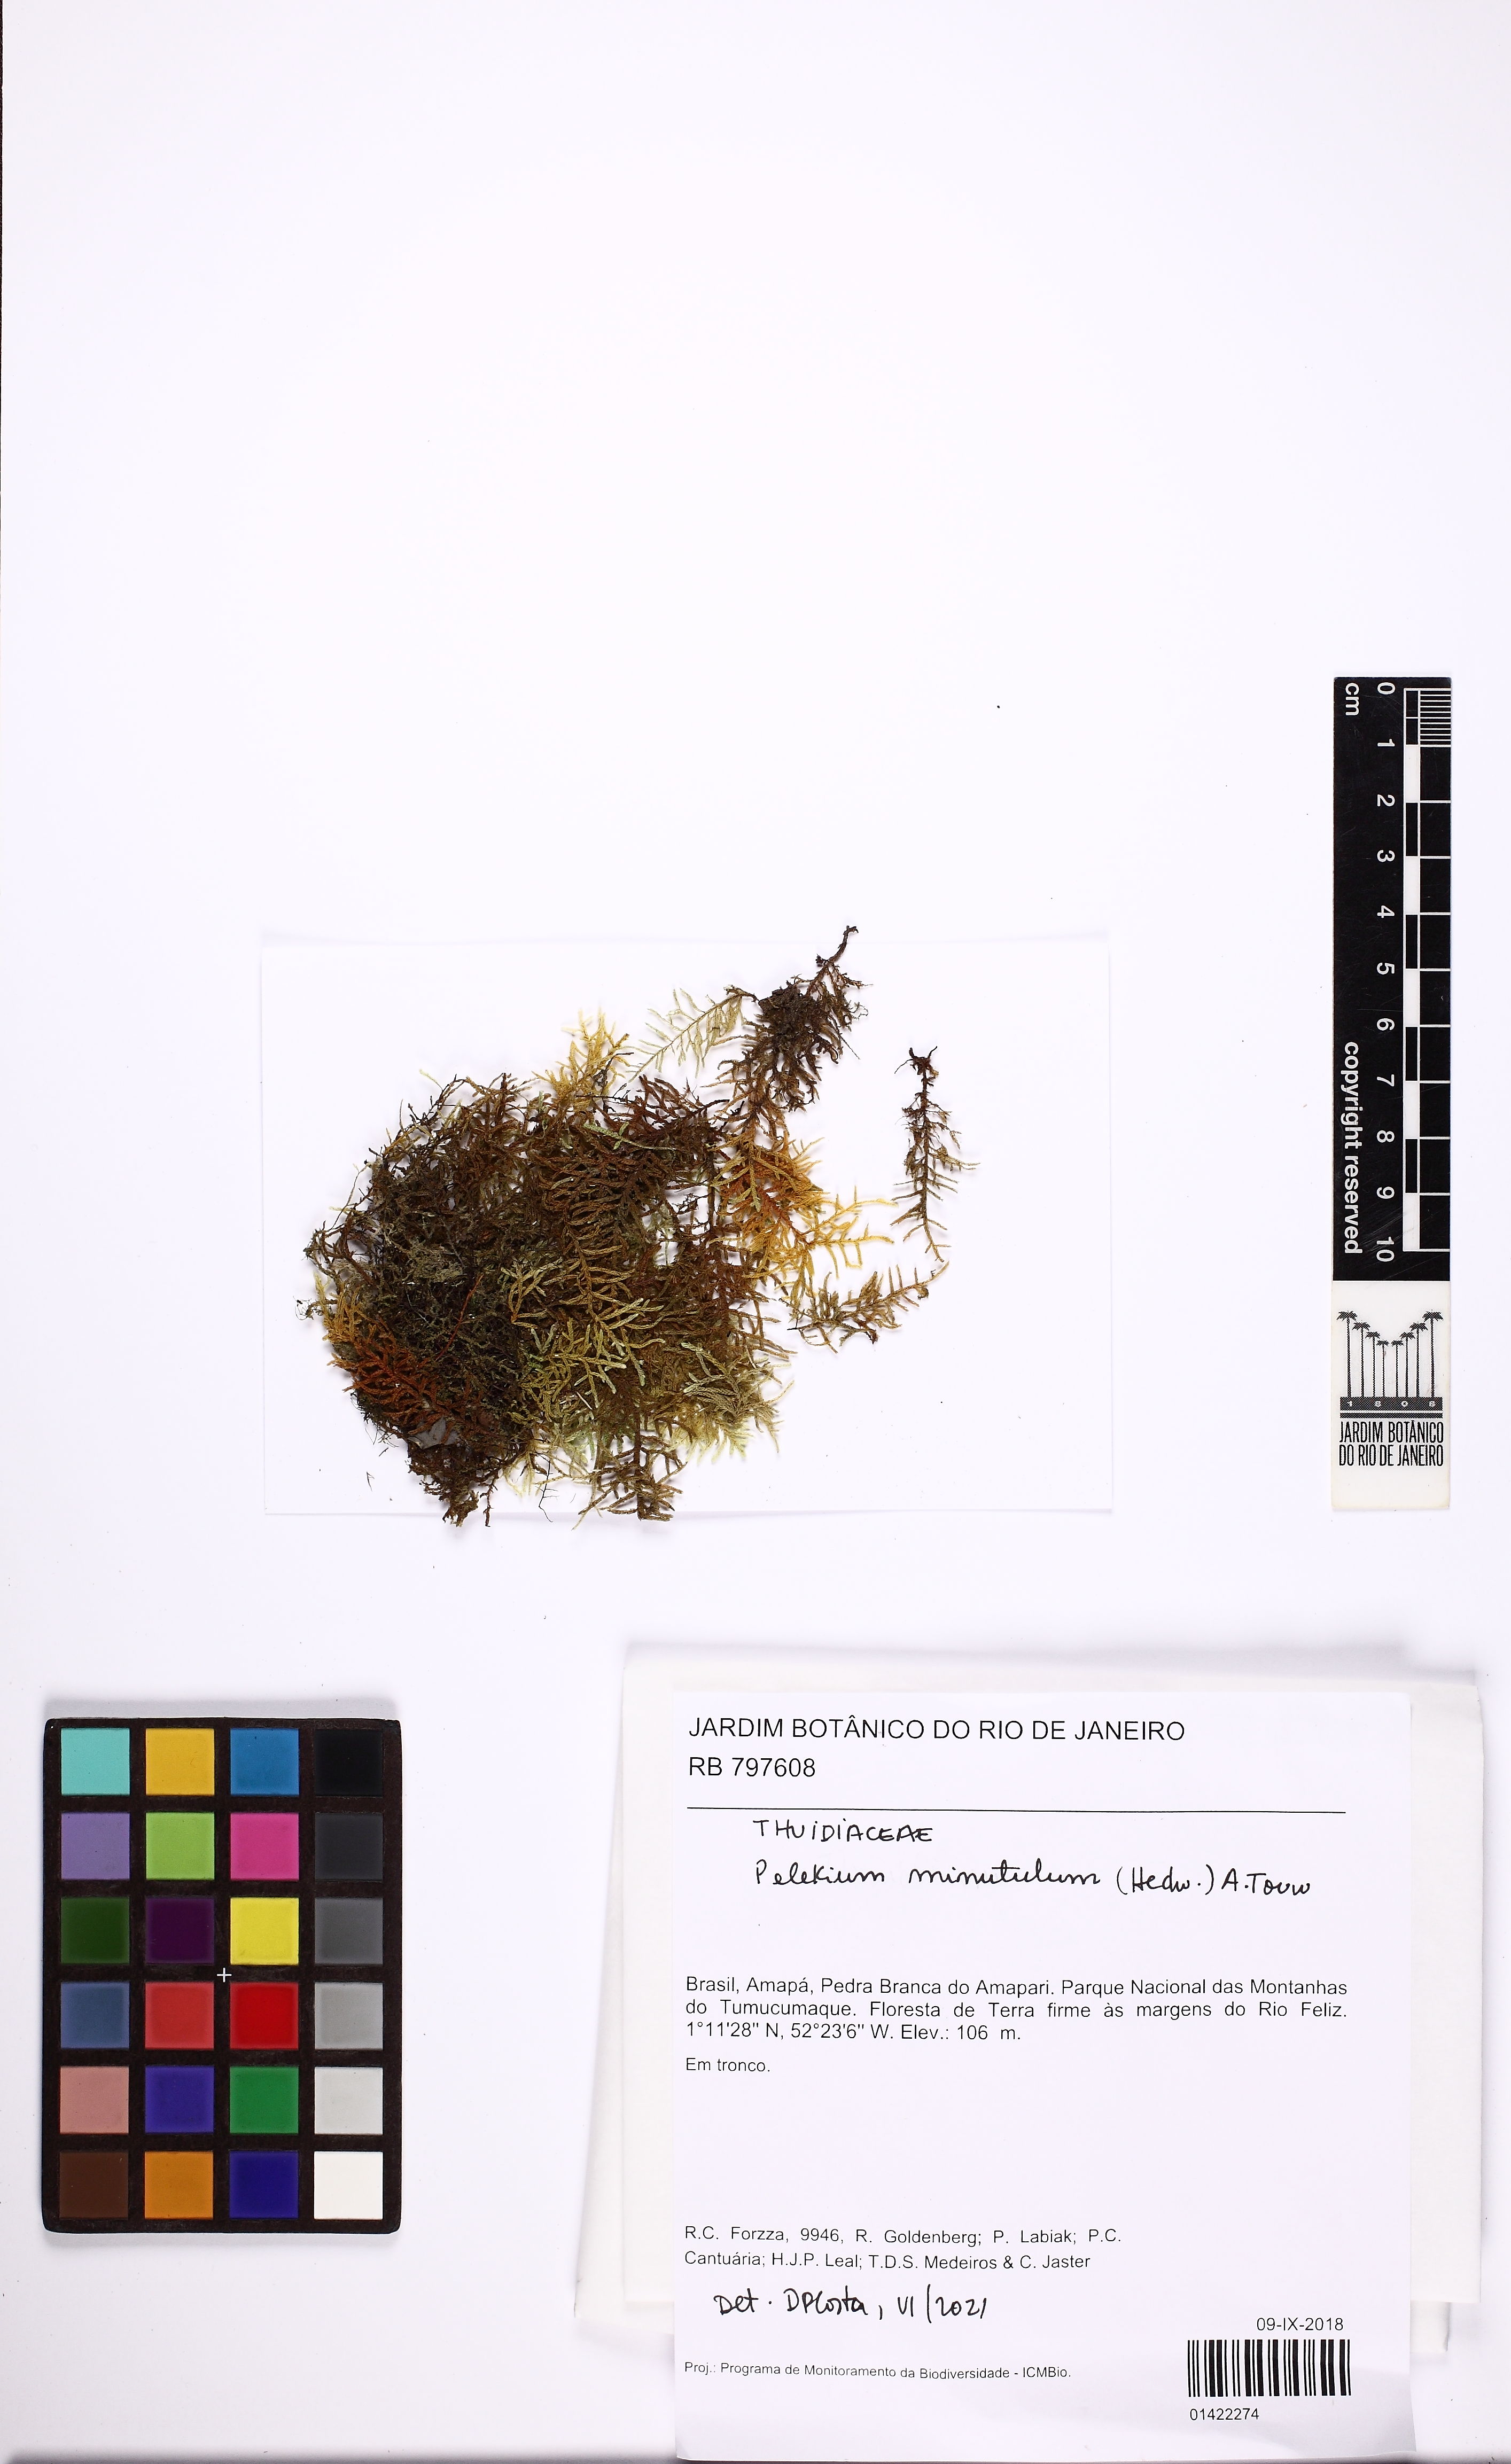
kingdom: Plantae
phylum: Bryophyta
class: Bryopsida
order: Hypnales
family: Thuidiaceae
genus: Pelekium
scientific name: Pelekium minutulum
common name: Tiny cedar moss
